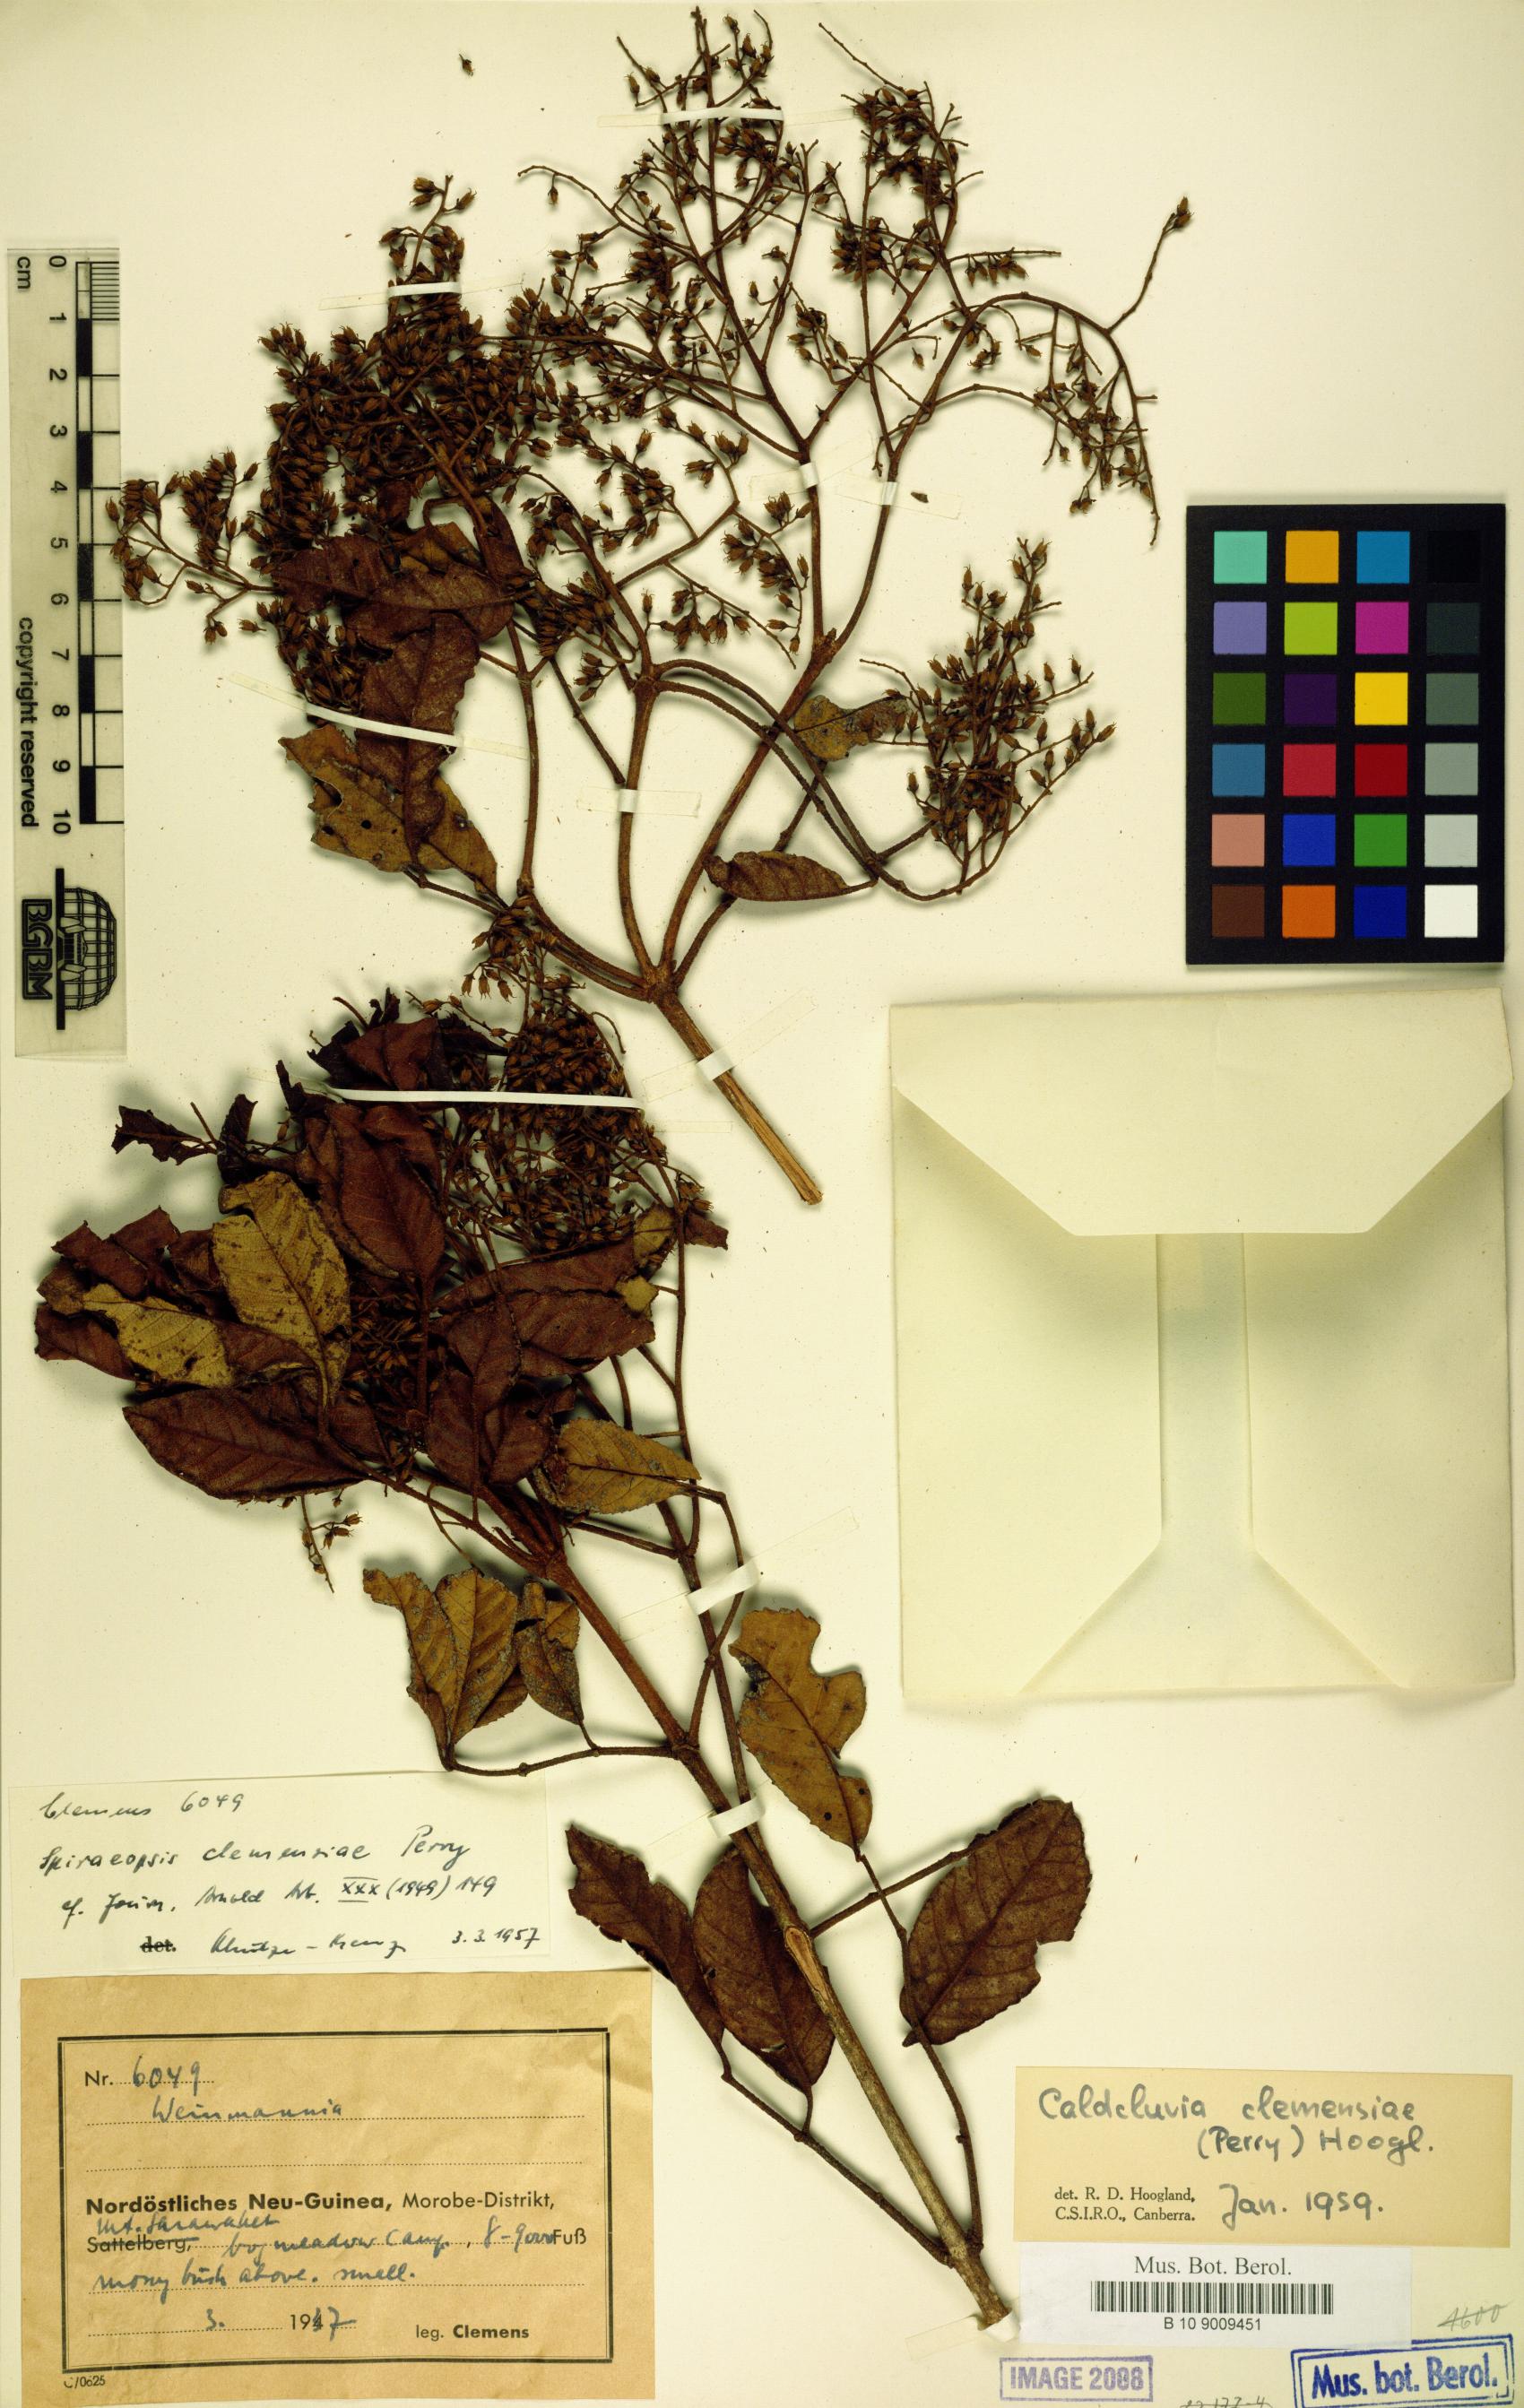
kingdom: Plantae
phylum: Tracheophyta
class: Magnoliopsida
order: Oxalidales
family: Cunoniaceae
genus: Ackama
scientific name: Ackama clemensiae
